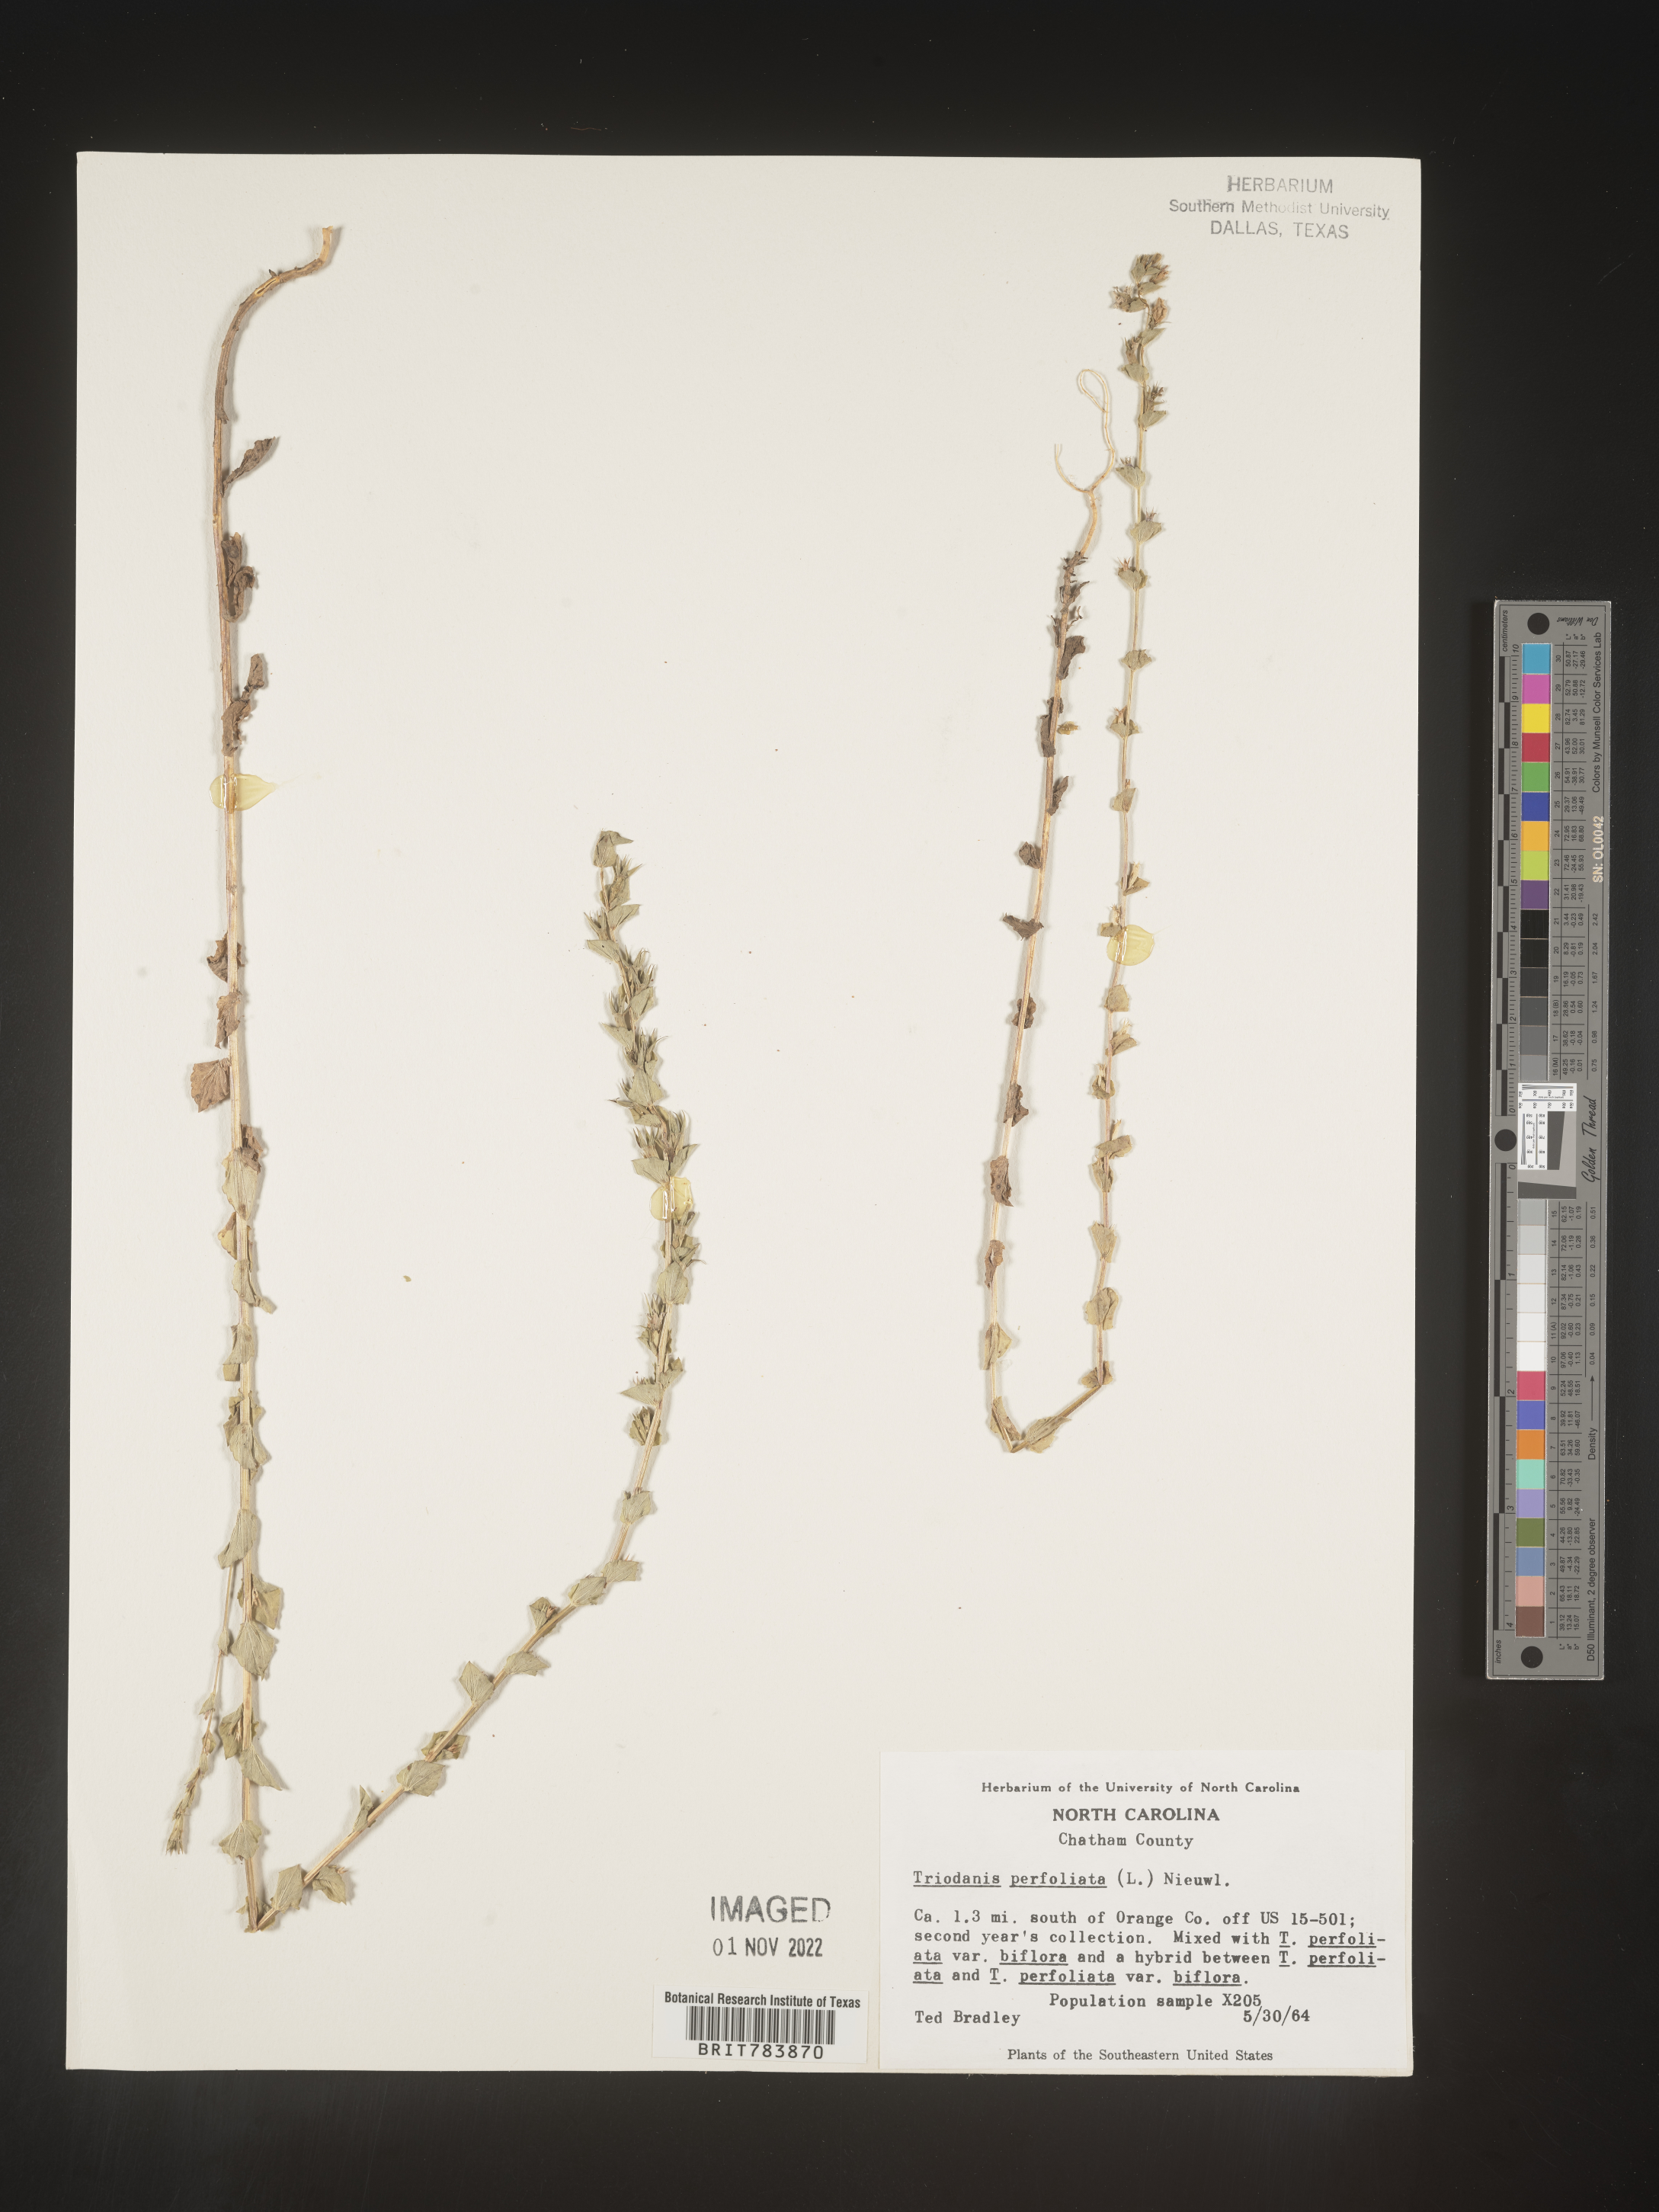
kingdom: Plantae
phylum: Tracheophyta
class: Magnoliopsida
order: Asterales
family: Campanulaceae
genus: Triodanis
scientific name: Triodanis perfoliata
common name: Clasping venus' looking-glass
